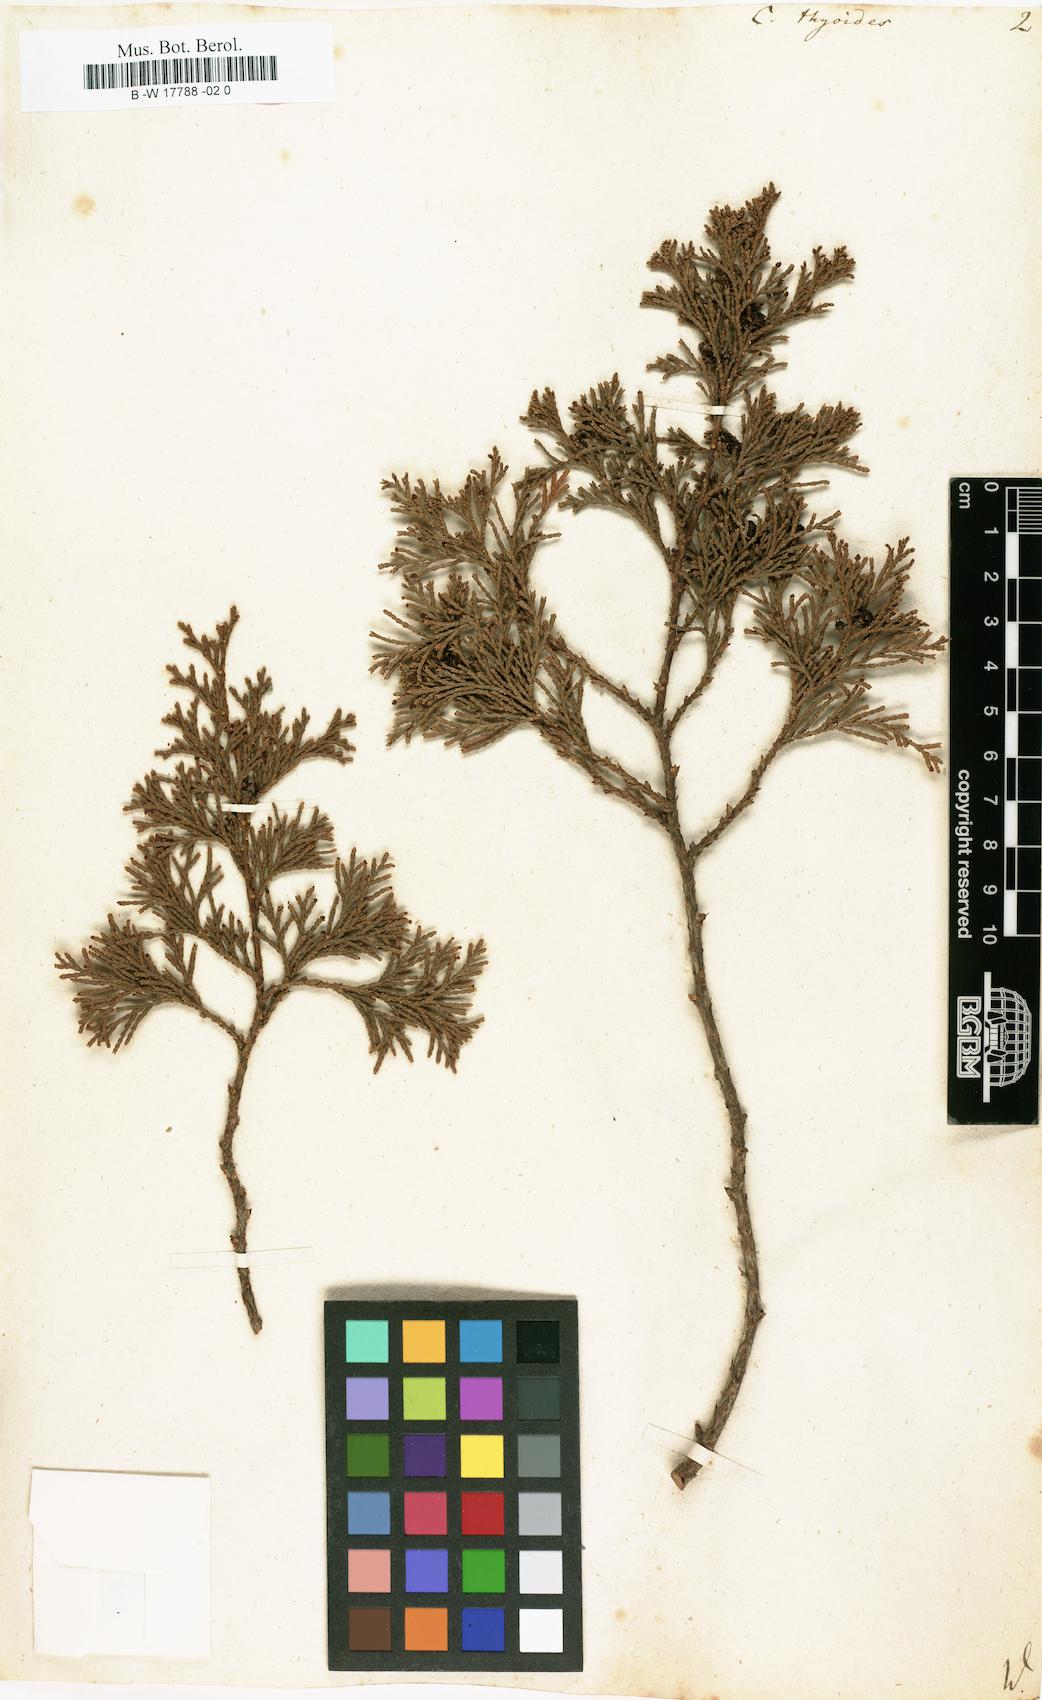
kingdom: Plantae
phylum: Tracheophyta
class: Pinopsida
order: Pinales
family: Cupressaceae
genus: Chamaecyparis
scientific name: Chamaecyparis thyoides
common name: Atlantic white cedar
